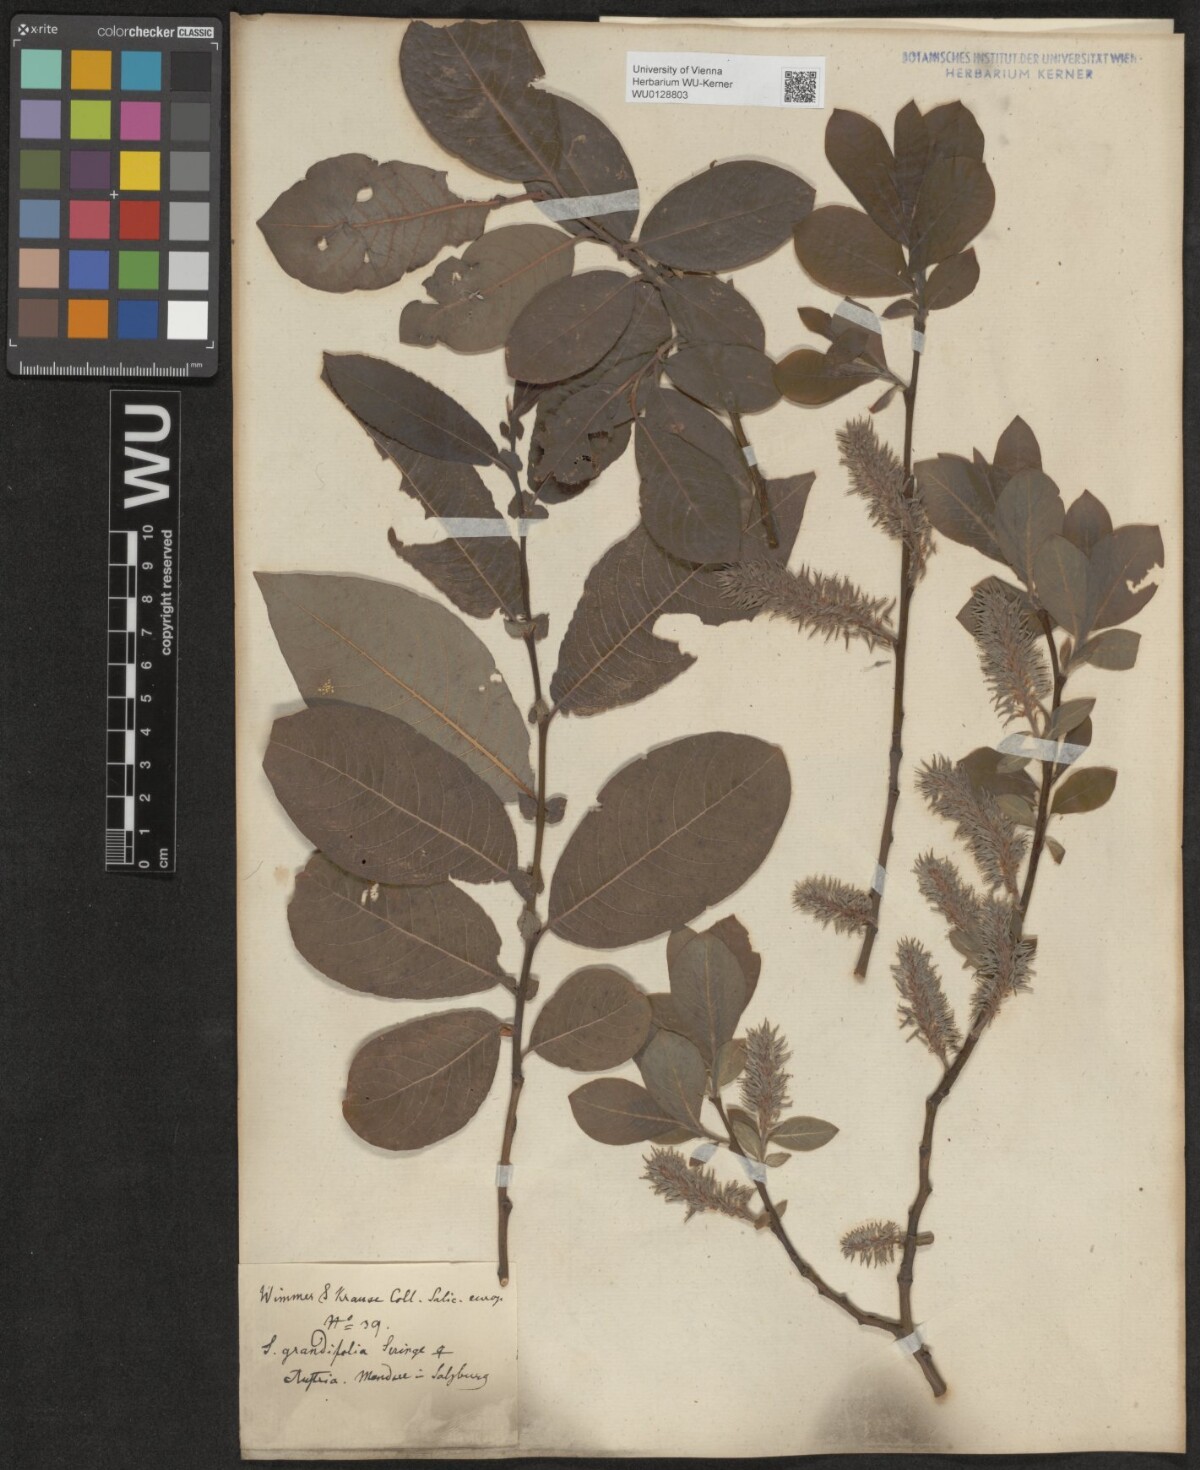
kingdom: Plantae
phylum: Tracheophyta
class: Magnoliopsida
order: Malpighiales
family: Salicaceae
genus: Salix
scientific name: Salix appendiculata
